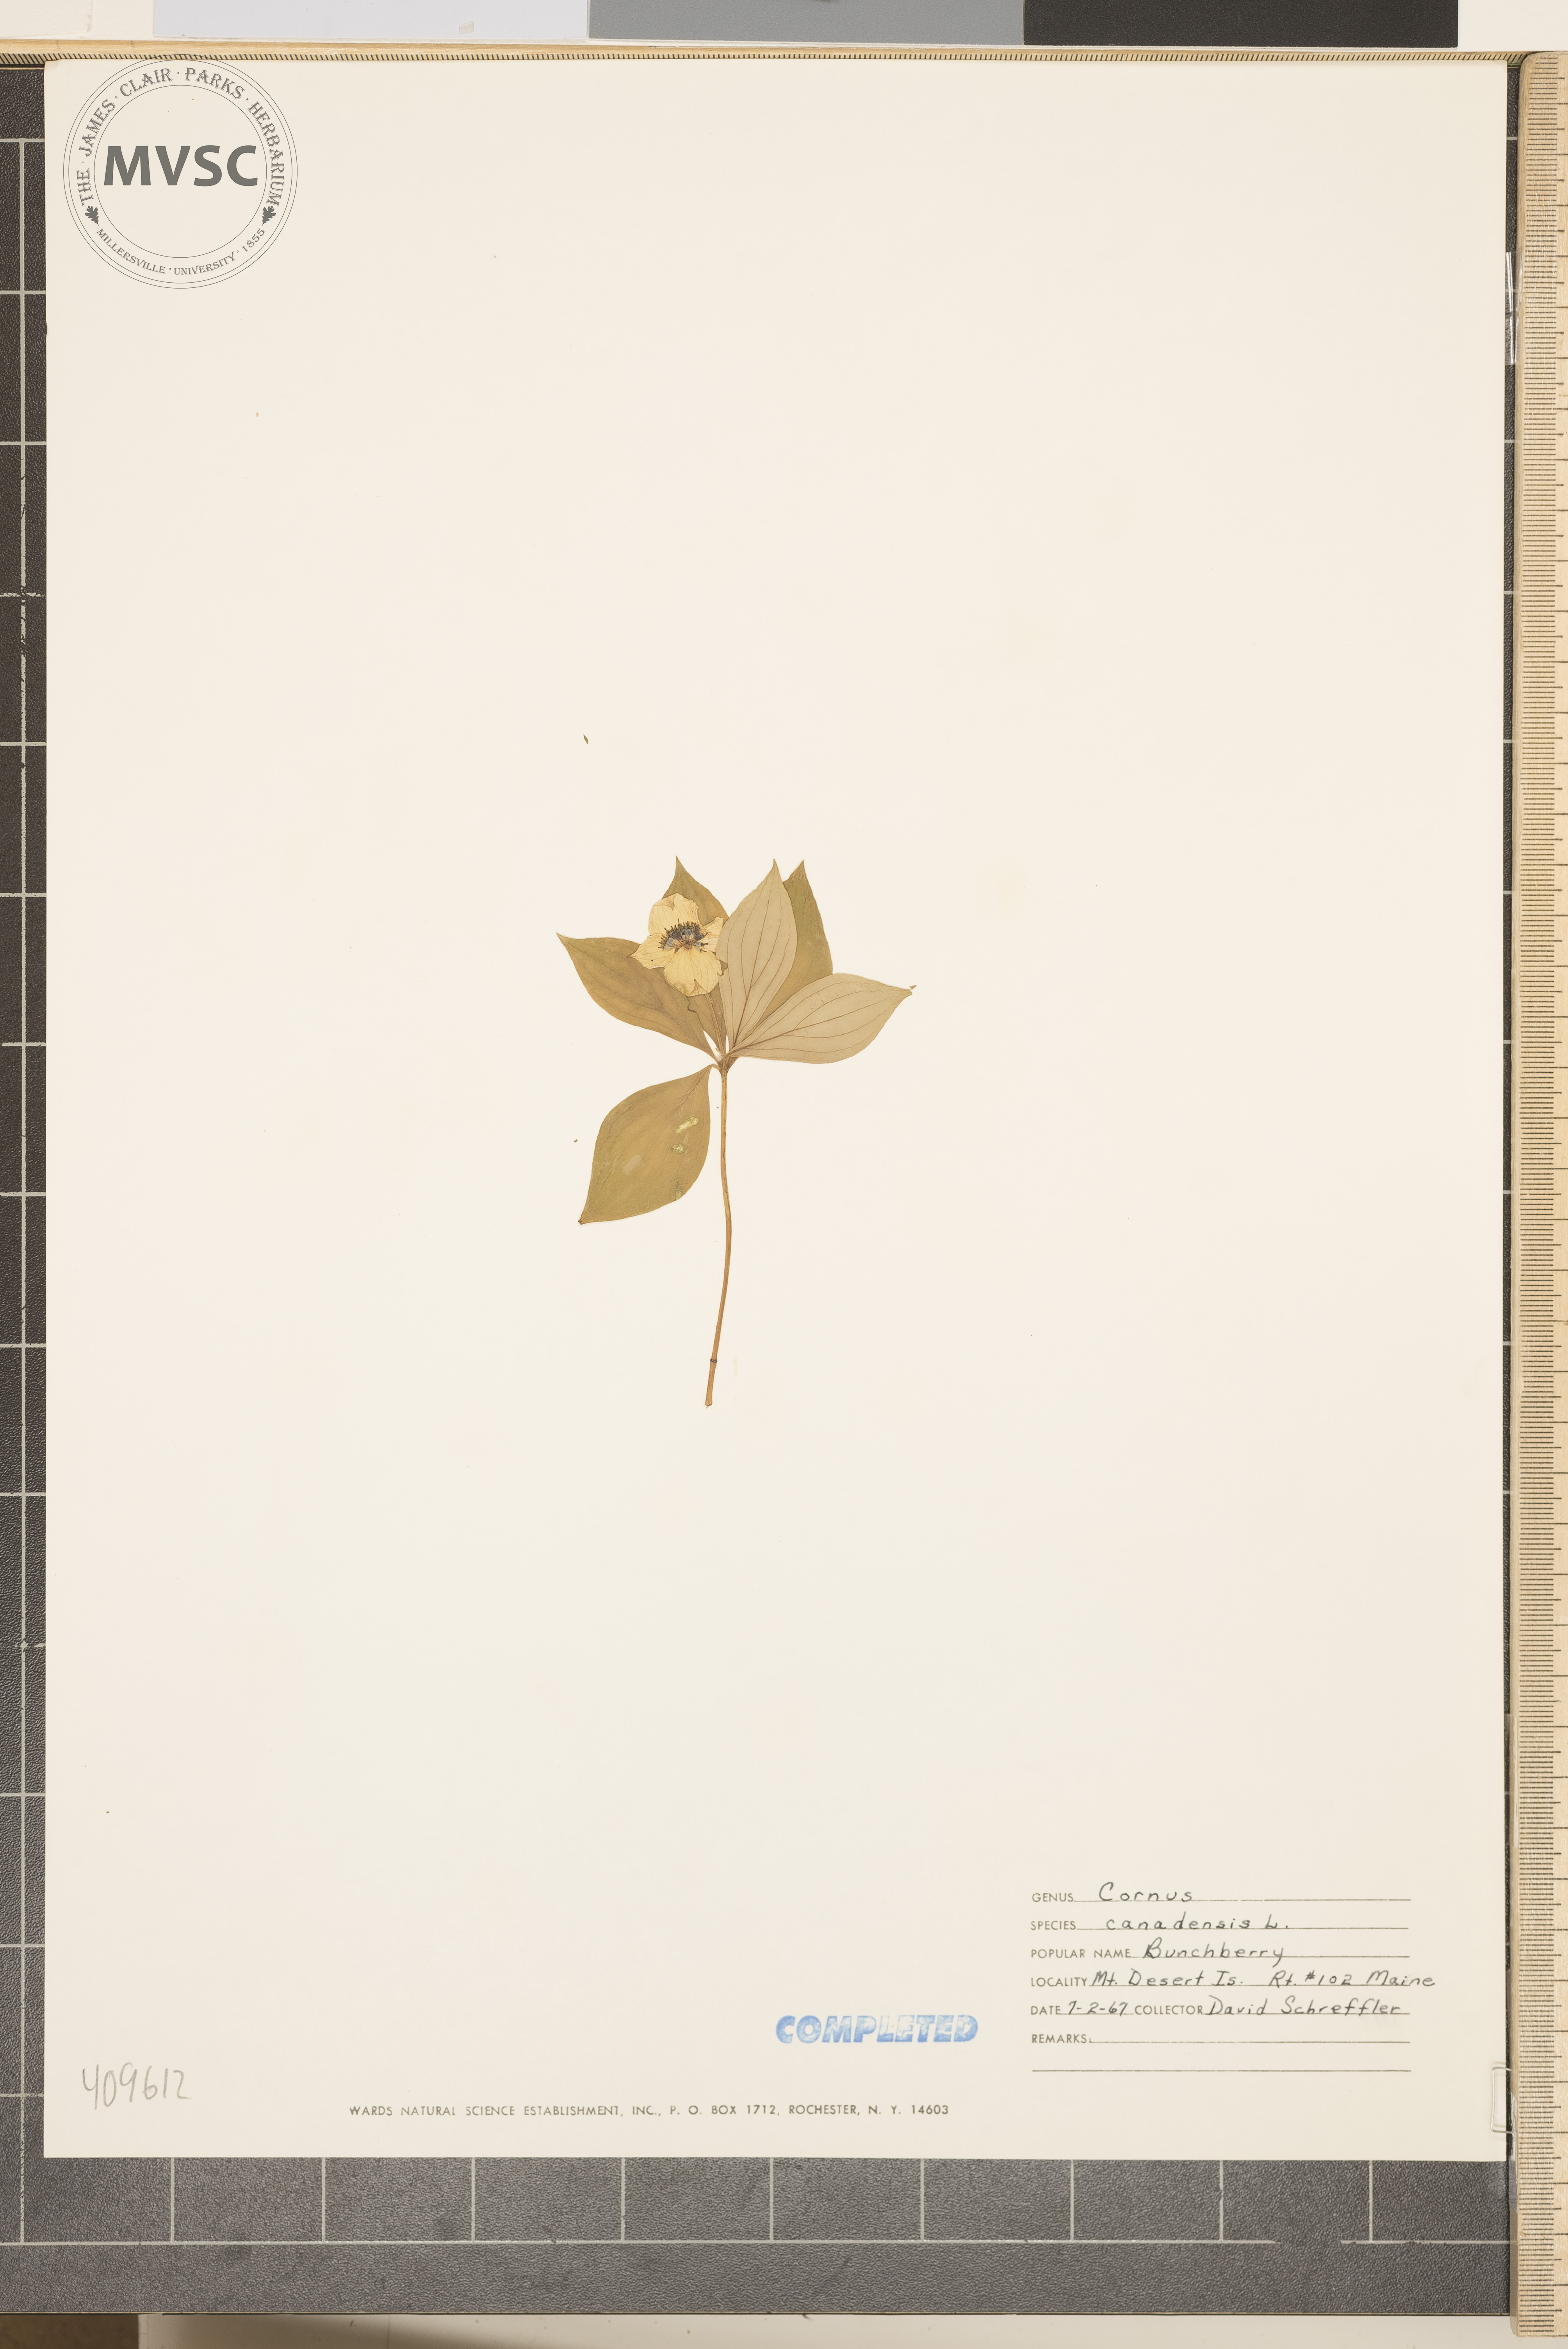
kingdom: Plantae
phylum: Tracheophyta
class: Magnoliopsida
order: Cornales
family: Cornaceae
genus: Cornus
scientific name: Cornus canadensis
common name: bunchberry
